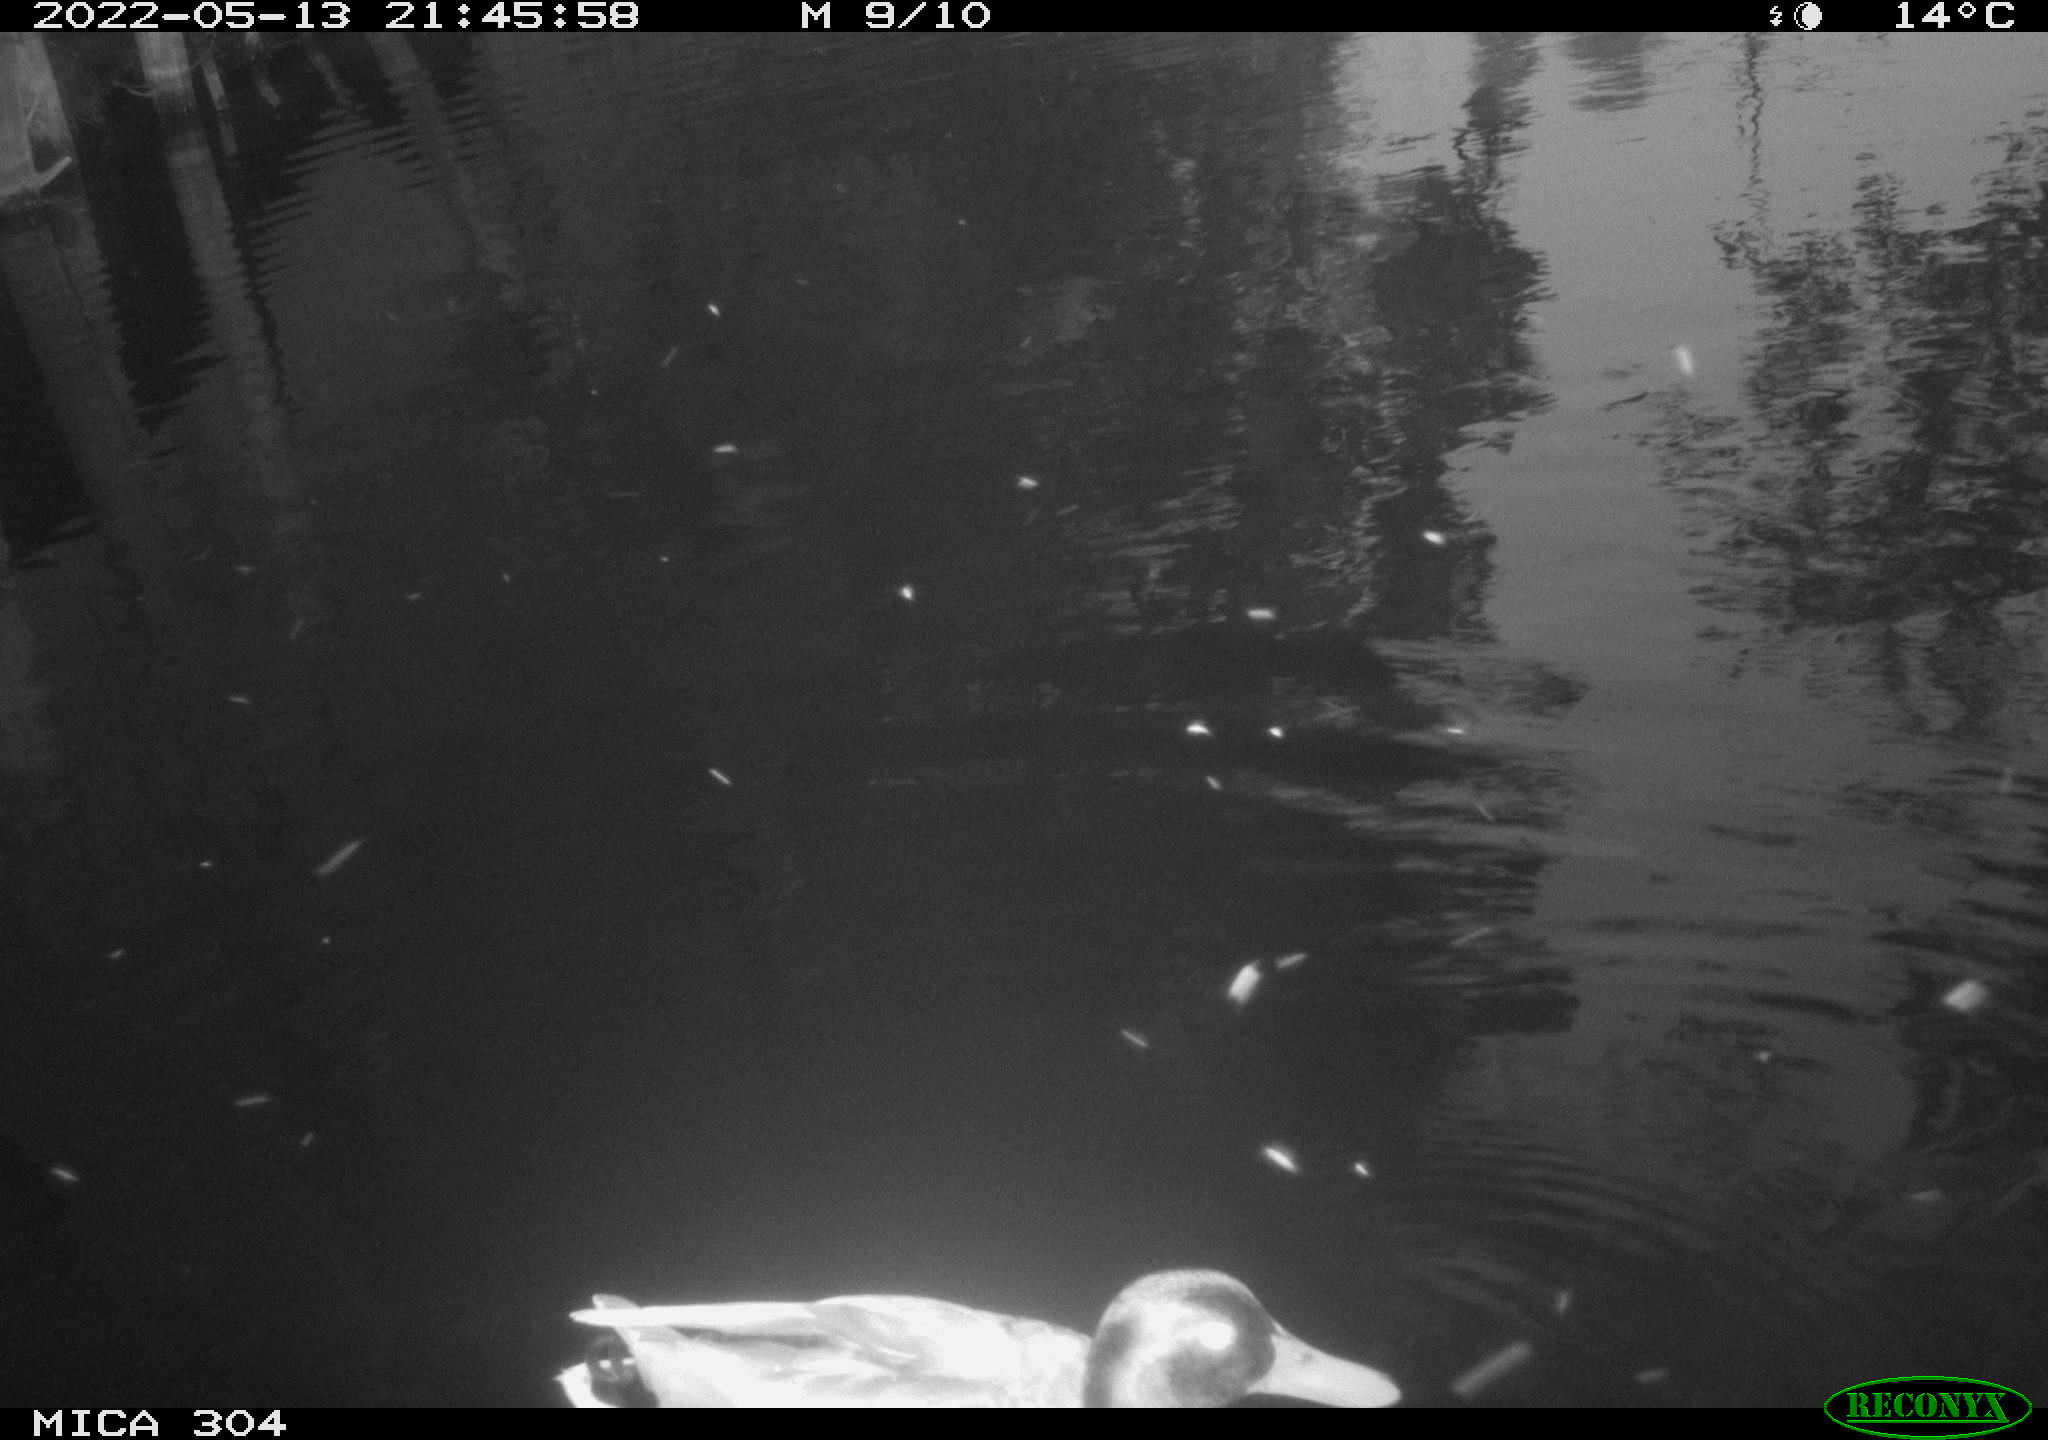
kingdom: Animalia
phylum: Chordata
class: Aves
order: Anseriformes
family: Anatidae
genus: Anas
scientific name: Anas platyrhynchos
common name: Mallard
